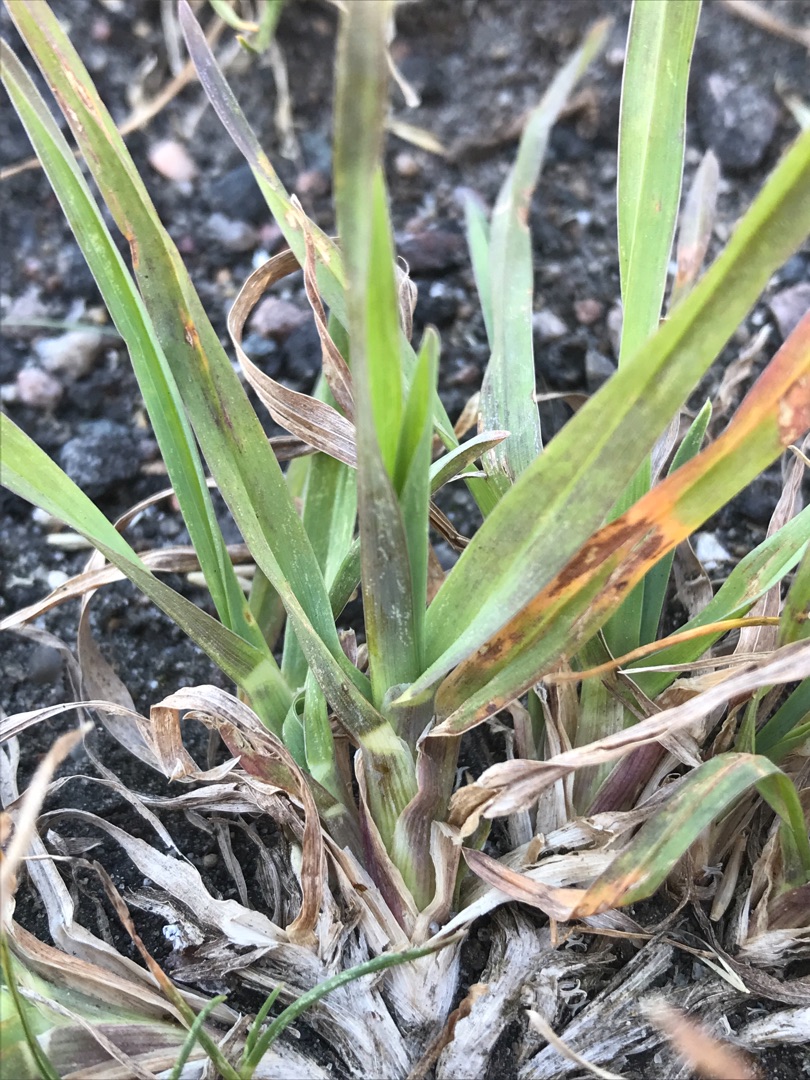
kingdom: Plantae
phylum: Tracheophyta
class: Liliopsida
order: Poales
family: Poaceae
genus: Dactylis
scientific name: Dactylis glomerata
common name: Almindelig hundegræs
